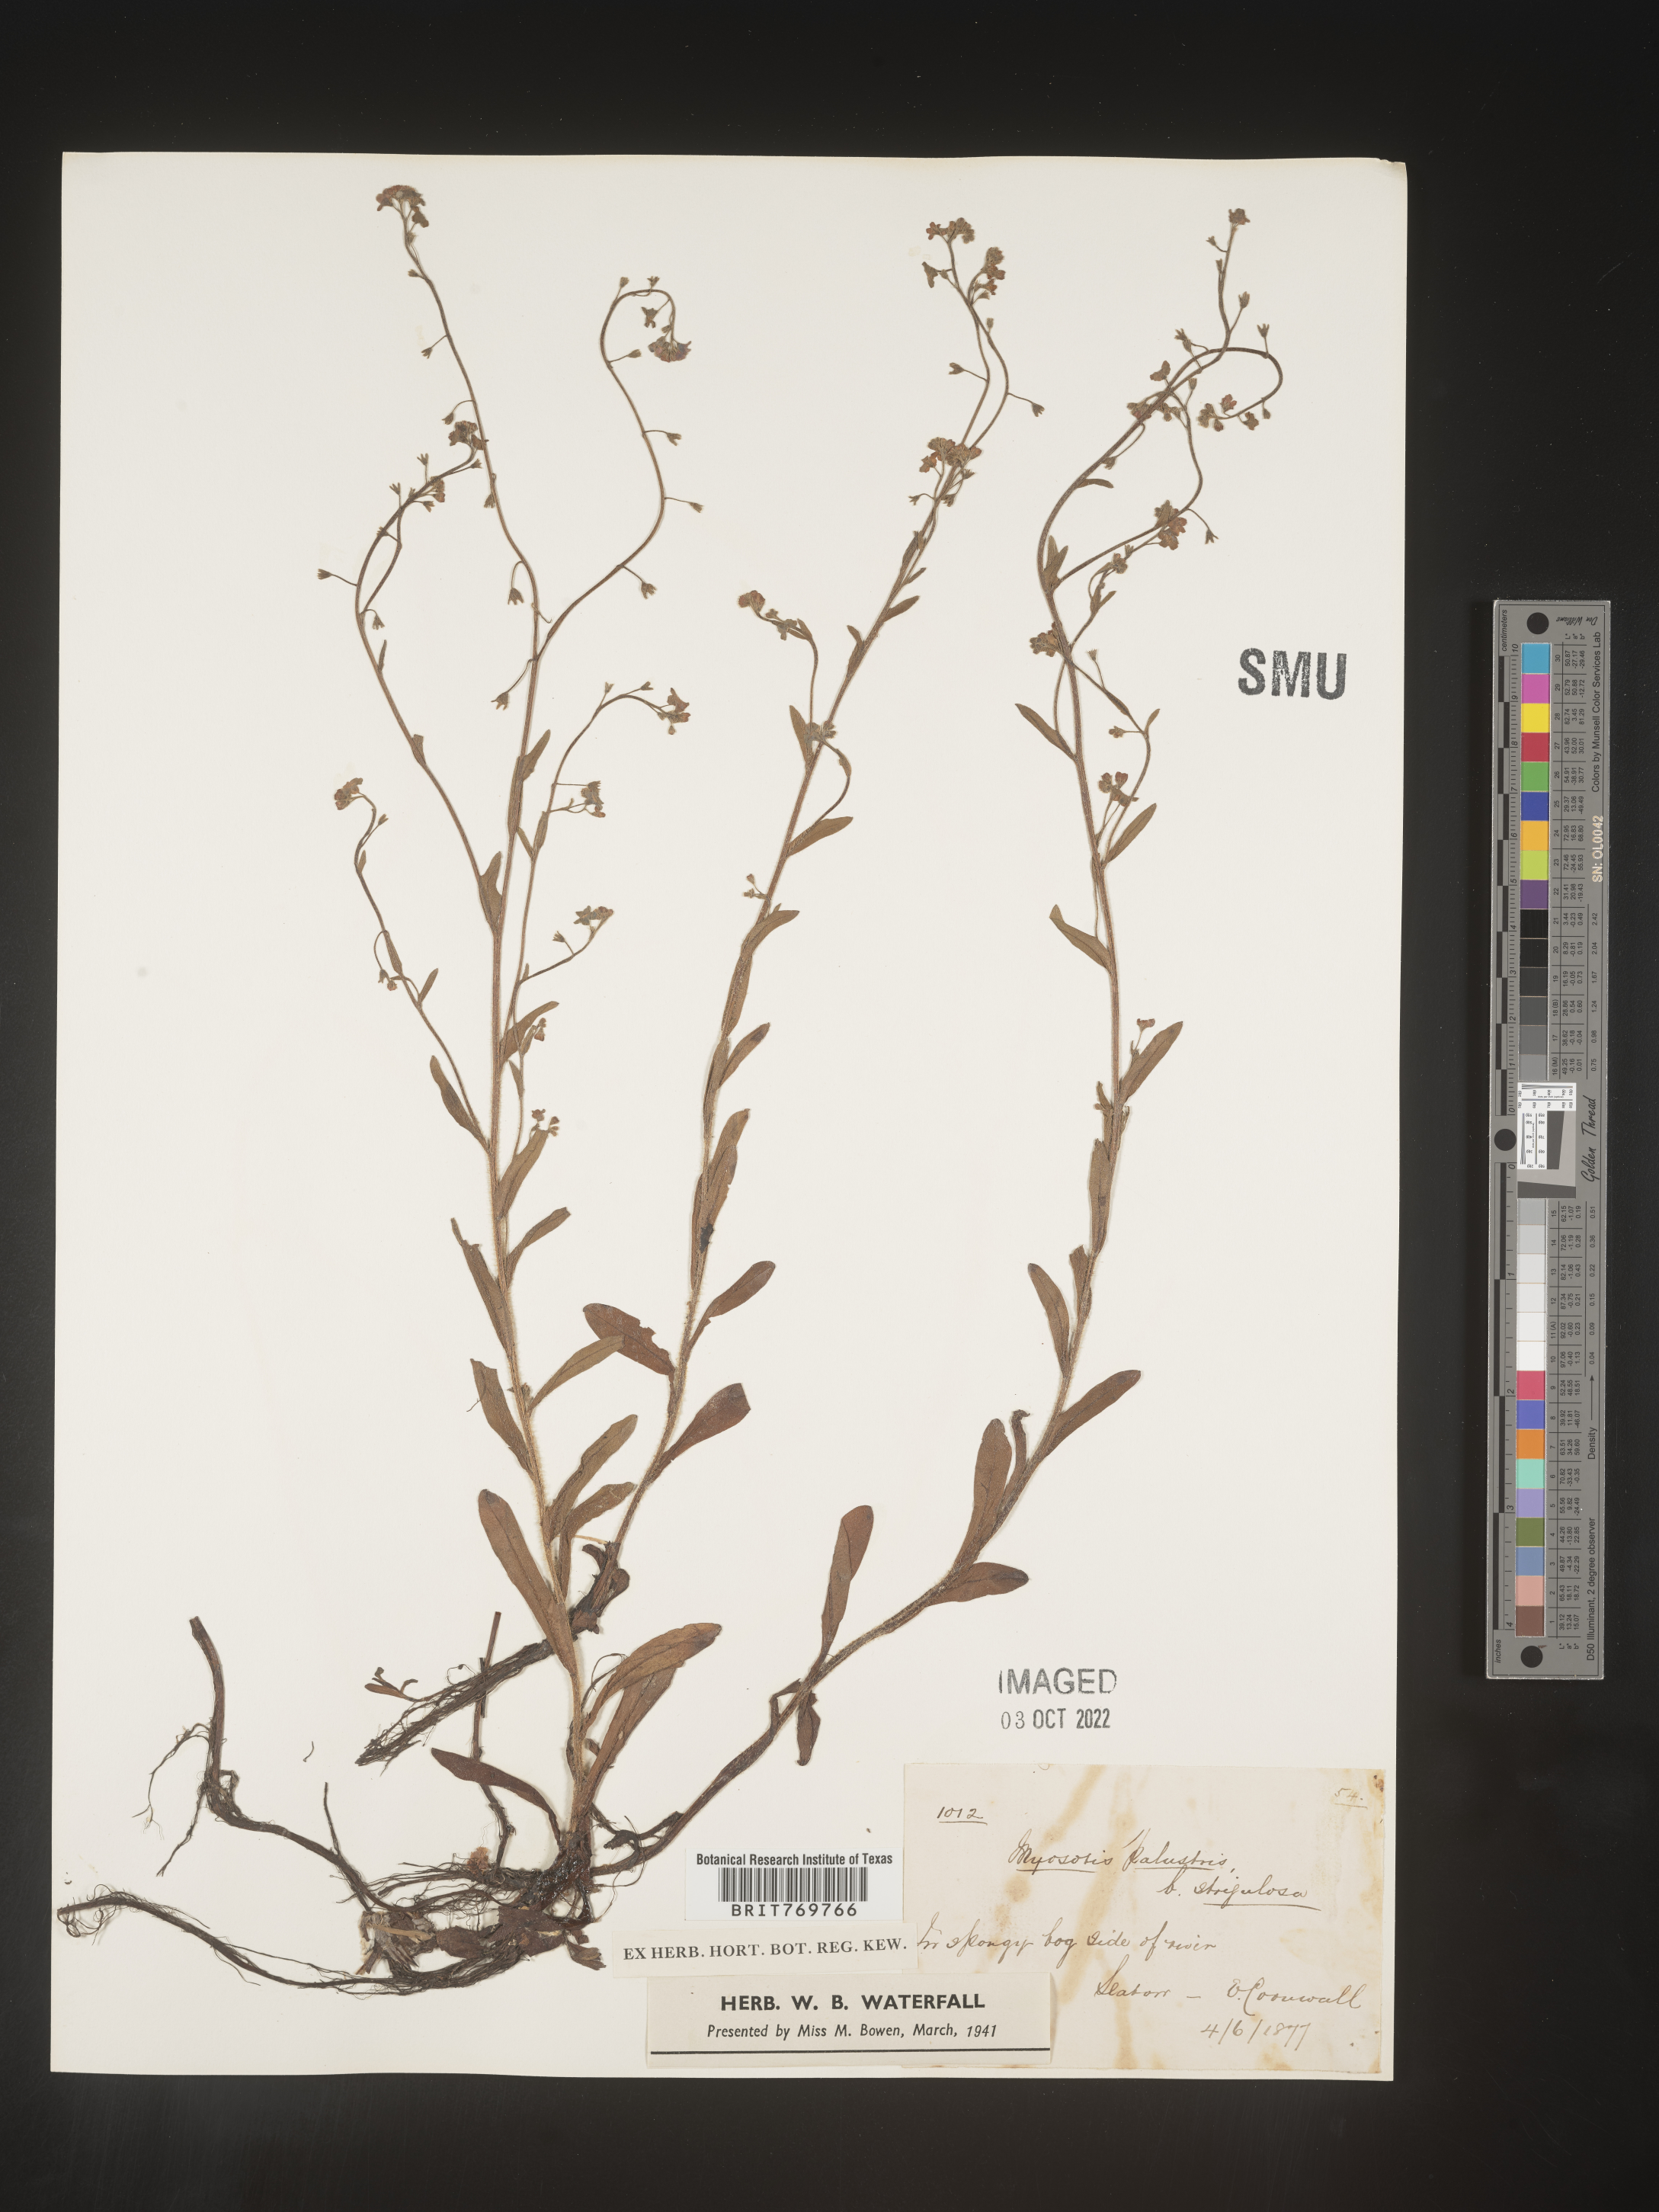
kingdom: Plantae
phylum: Tracheophyta
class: Magnoliopsida
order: Boraginales
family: Boraginaceae
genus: Myosotis
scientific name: Myosotis
